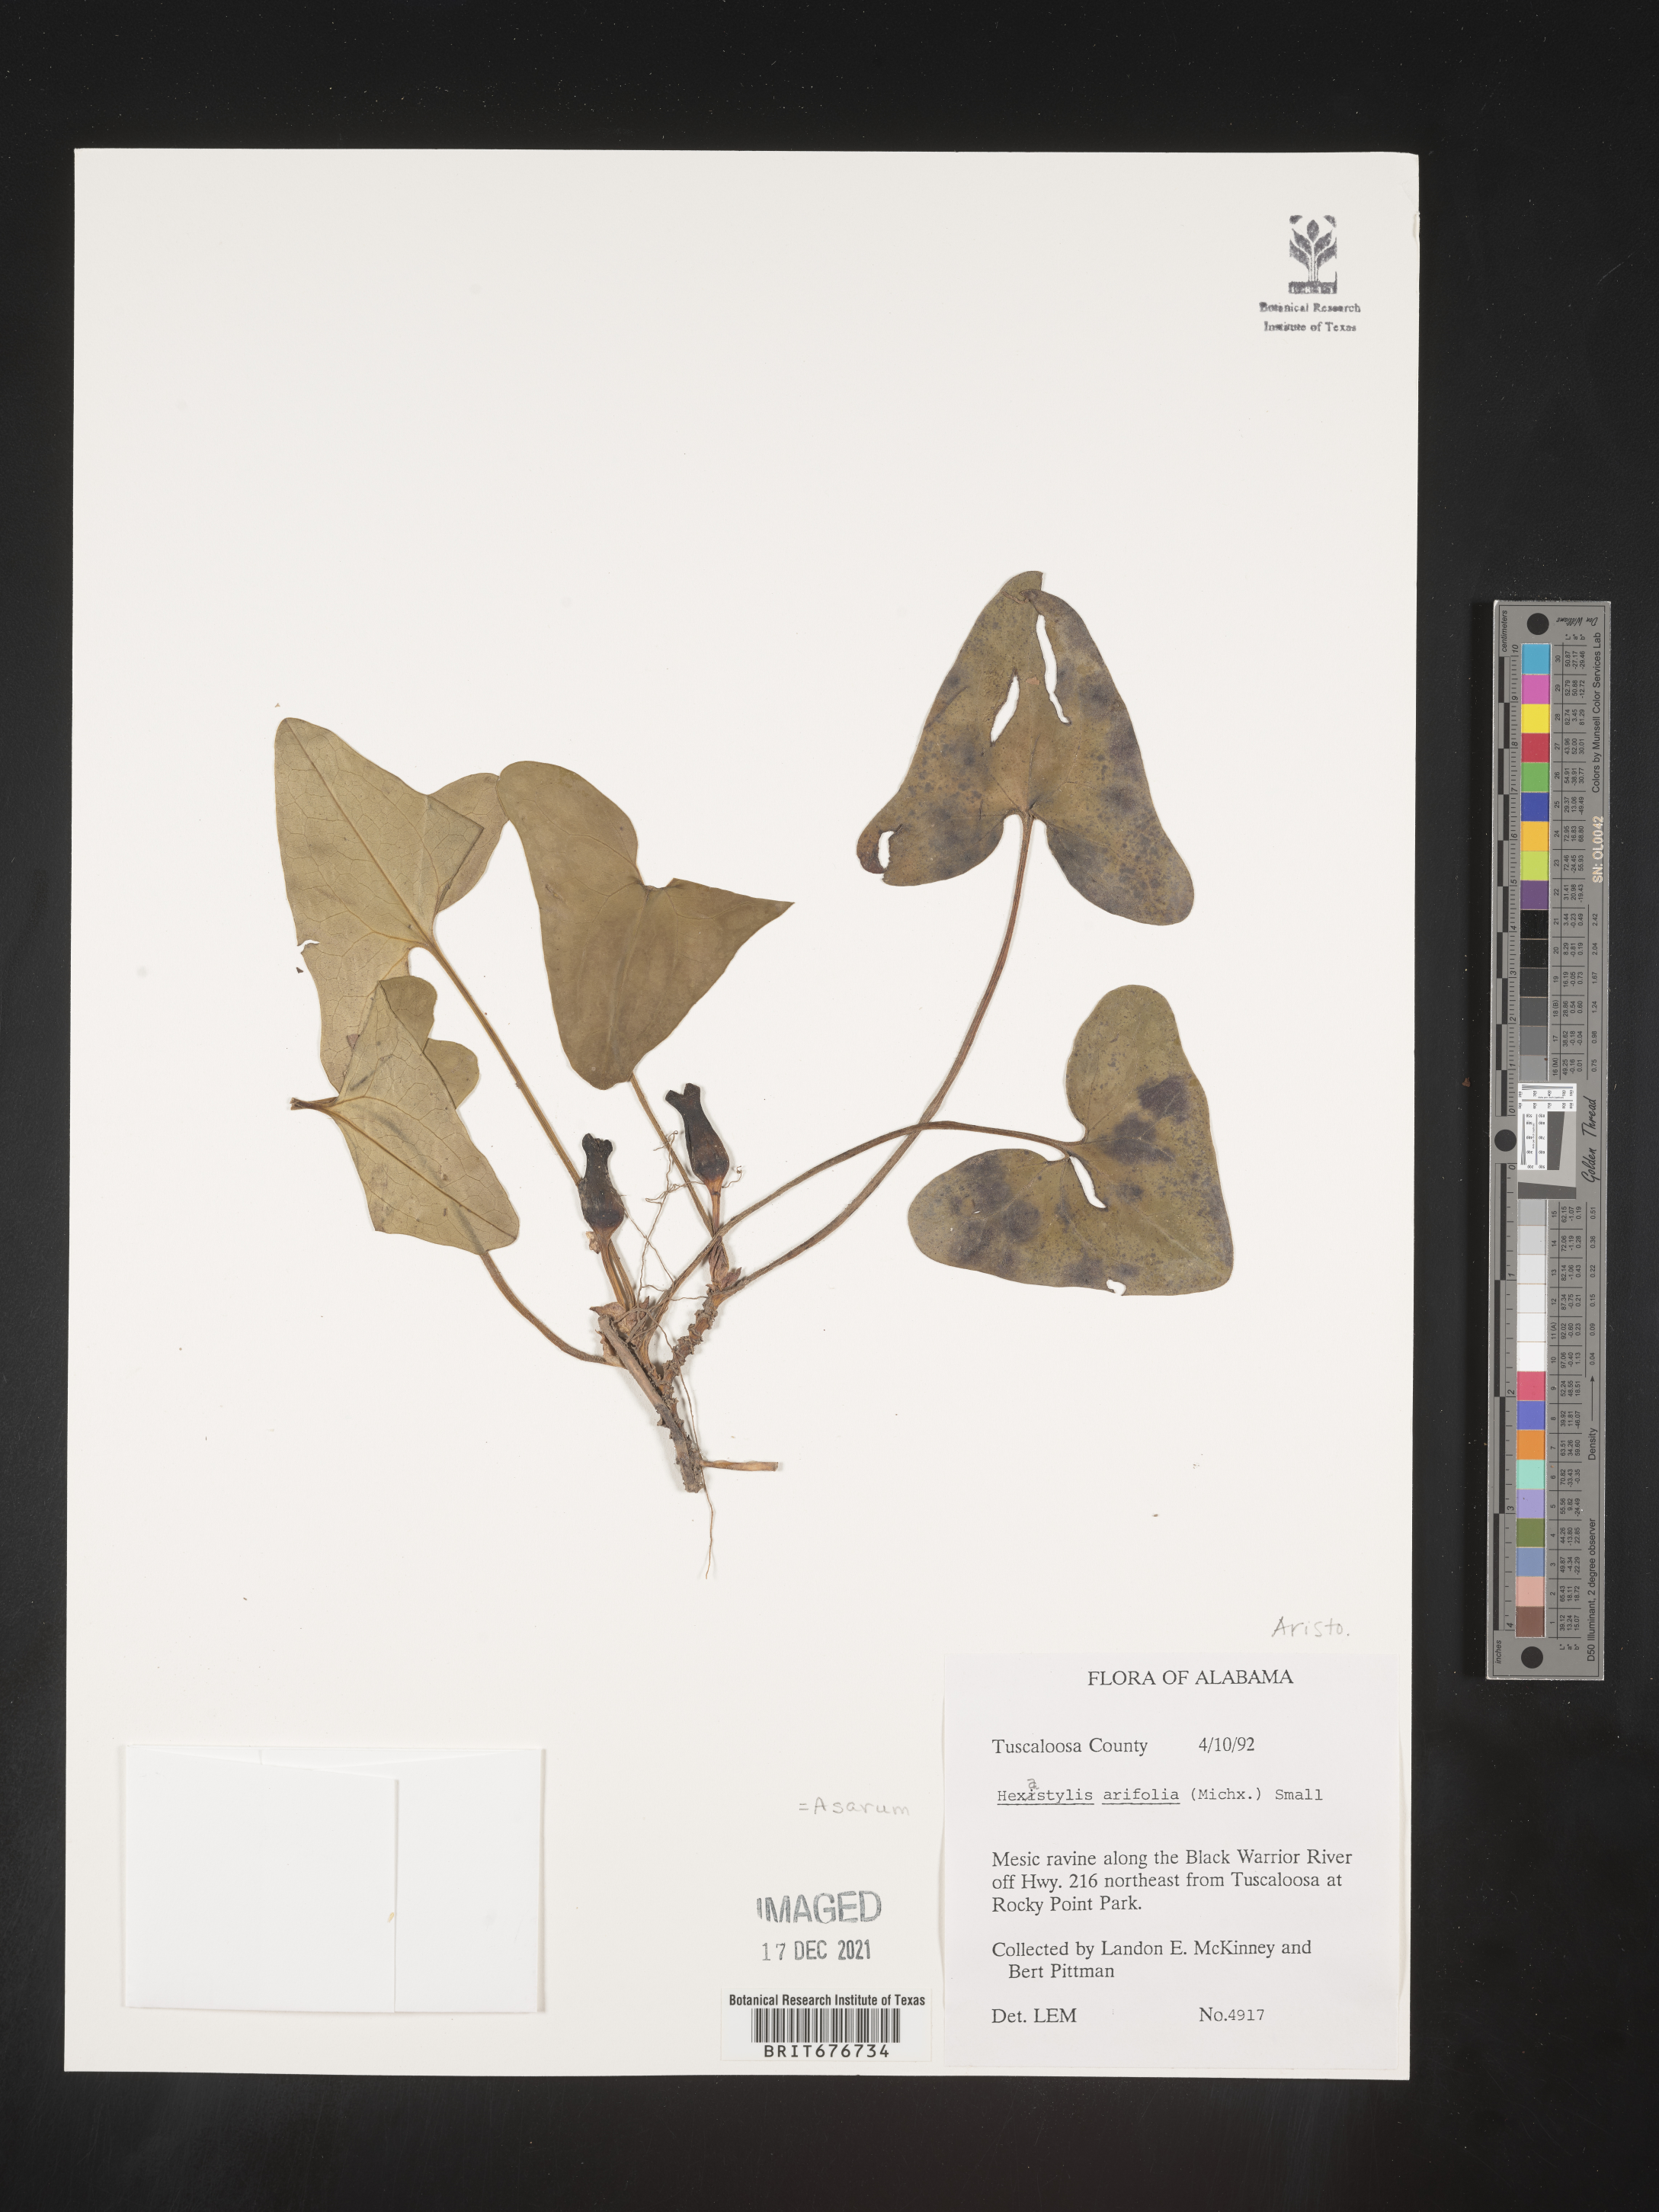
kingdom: Plantae
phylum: Tracheophyta
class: Magnoliopsida
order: Piperales
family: Aristolochiaceae
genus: Hexastylis
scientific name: Hexastylis arifolia
